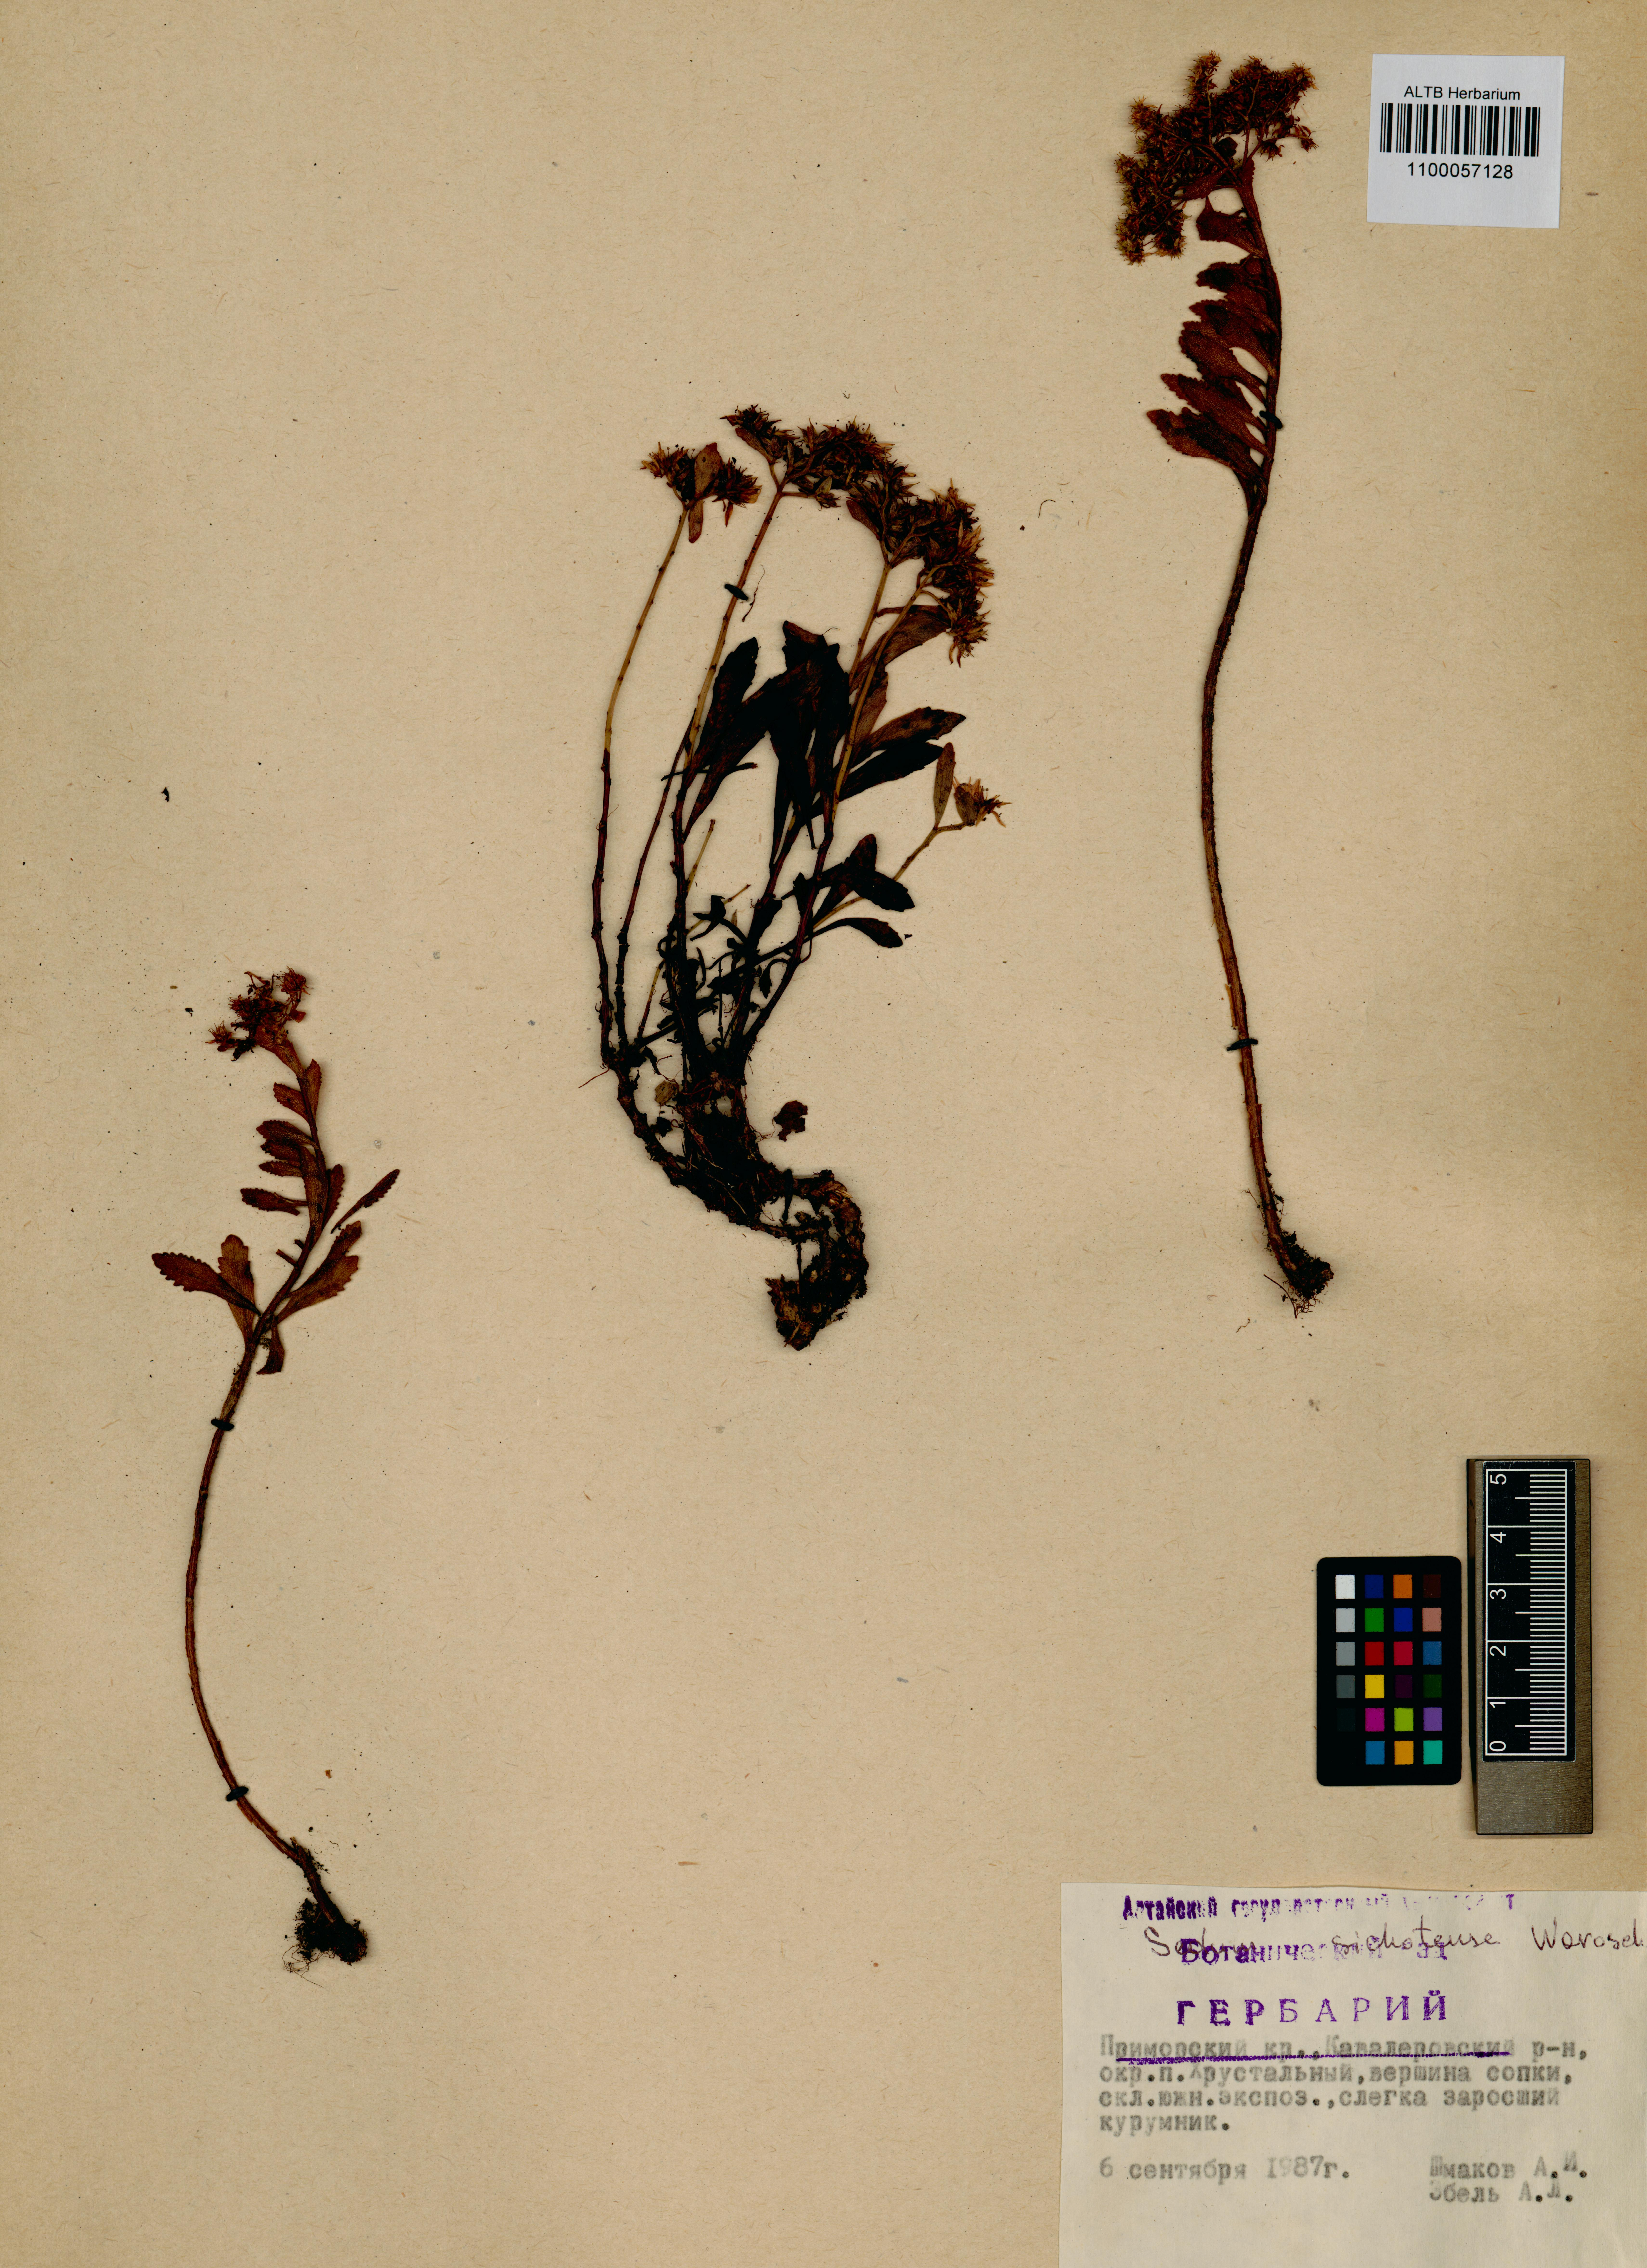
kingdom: Plantae
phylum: Tracheophyta
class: Magnoliopsida
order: Saxifragales
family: Crassulaceae
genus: Phedimus
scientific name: Phedimus sichotensis
